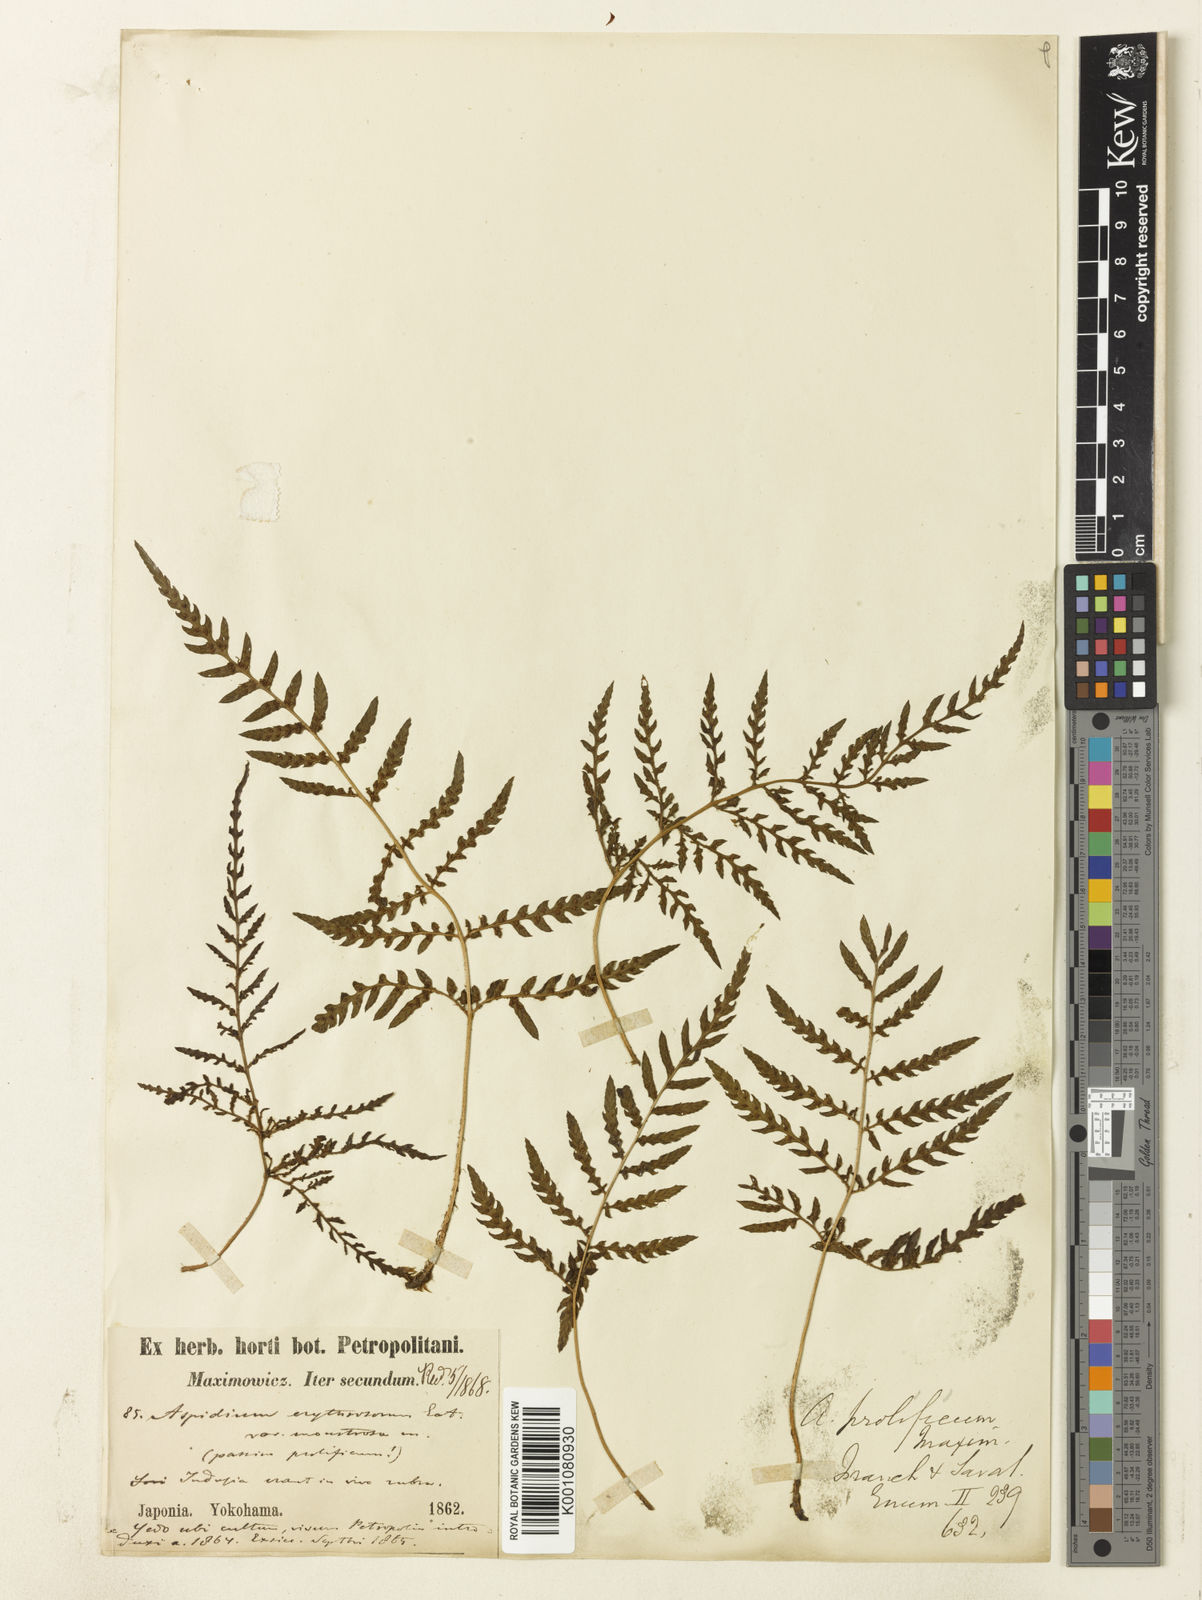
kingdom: Plantae
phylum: Tracheophyta
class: Polypodiopsida
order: Polypodiales
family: Dryopteridaceae
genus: Dryopteris
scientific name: Dryopteris erythrosora
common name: Autumn fern
